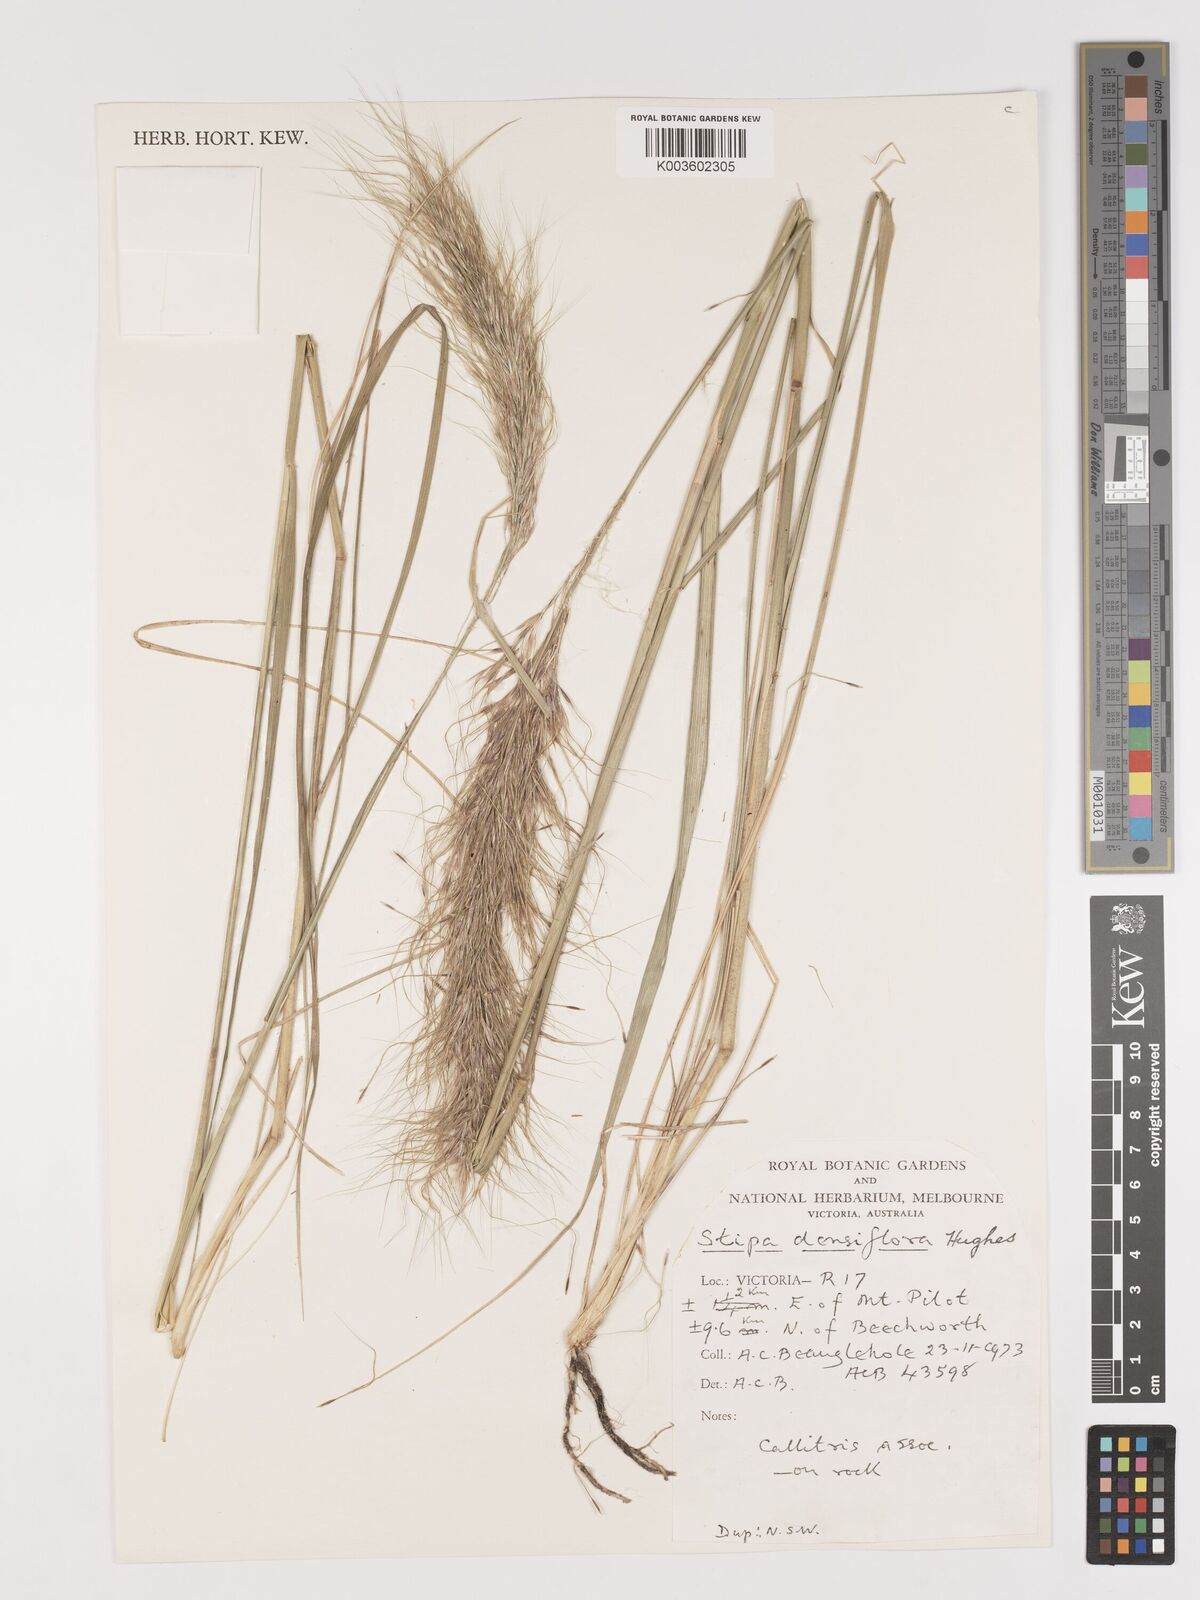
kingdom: Plantae
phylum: Tracheophyta
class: Liliopsida
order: Poales
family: Poaceae
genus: Stipa
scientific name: Stipa
